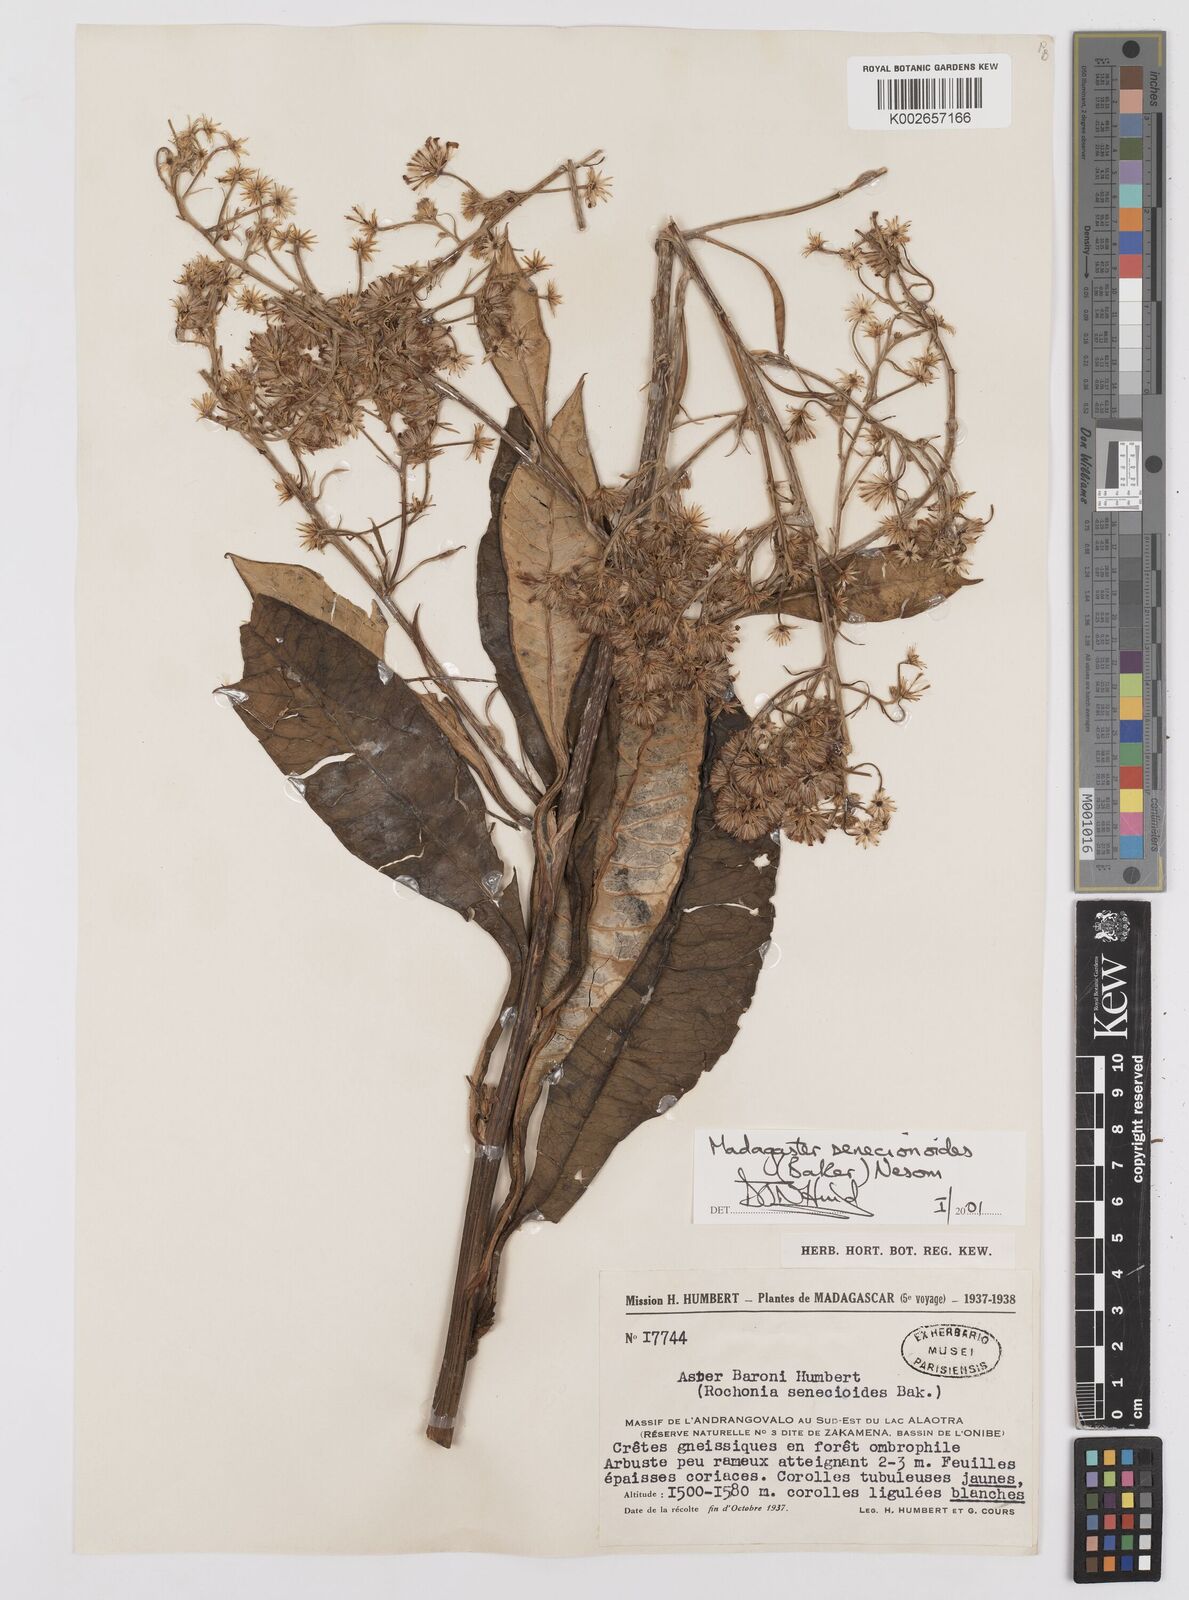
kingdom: Plantae
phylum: Tracheophyta
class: Magnoliopsida
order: Asterales
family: Asteraceae
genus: Madagaster
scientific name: Madagaster senecionoides
